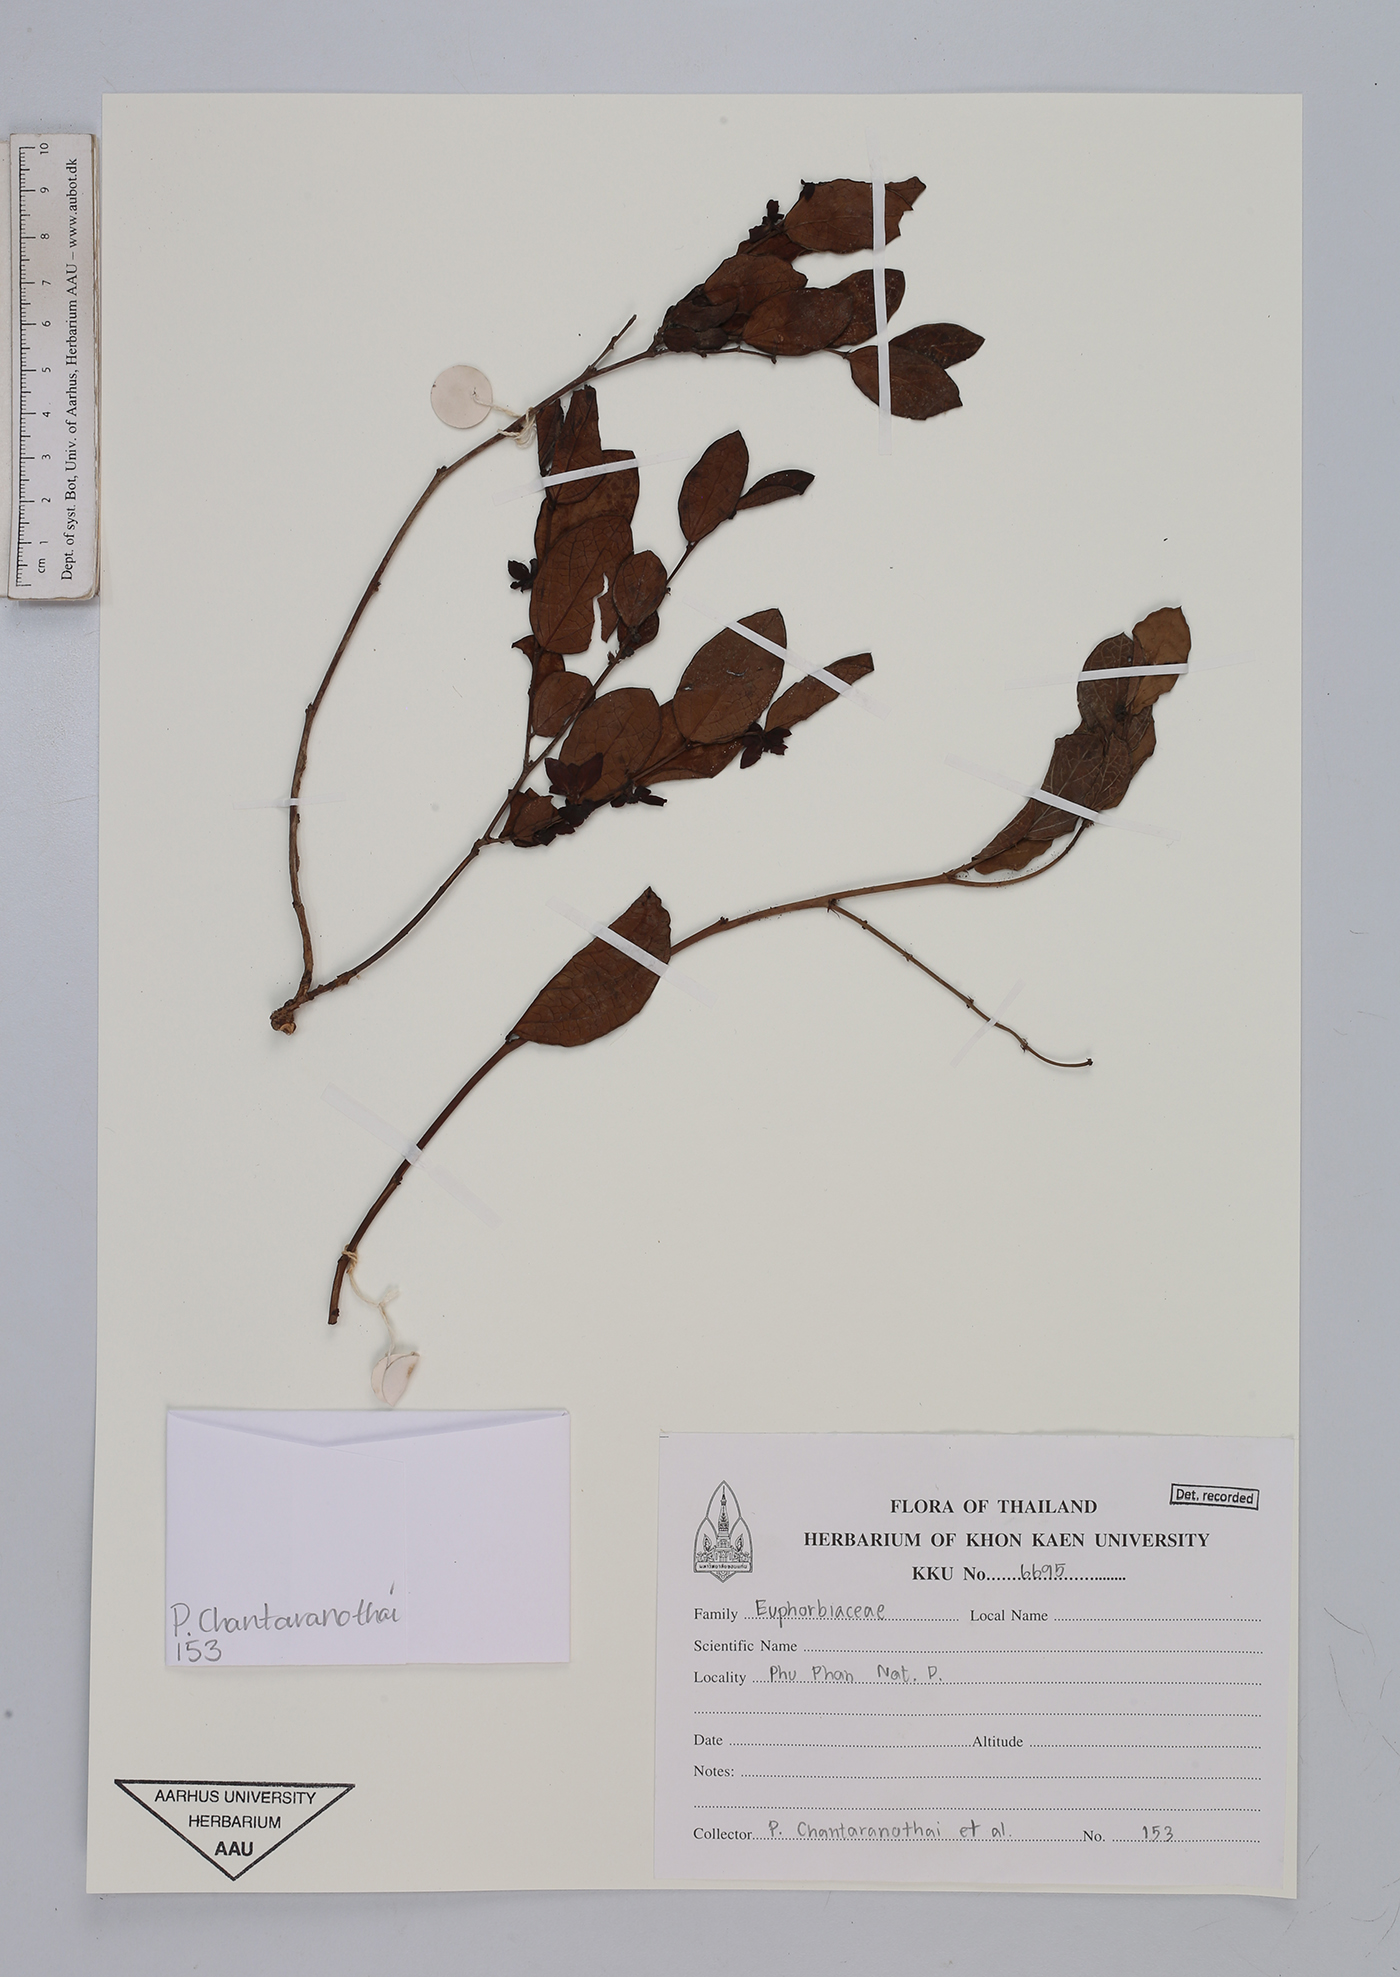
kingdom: Plantae
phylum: Tracheophyta
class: Magnoliopsida
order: Malpighiales
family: Euphorbiaceae
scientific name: Euphorbiaceae
